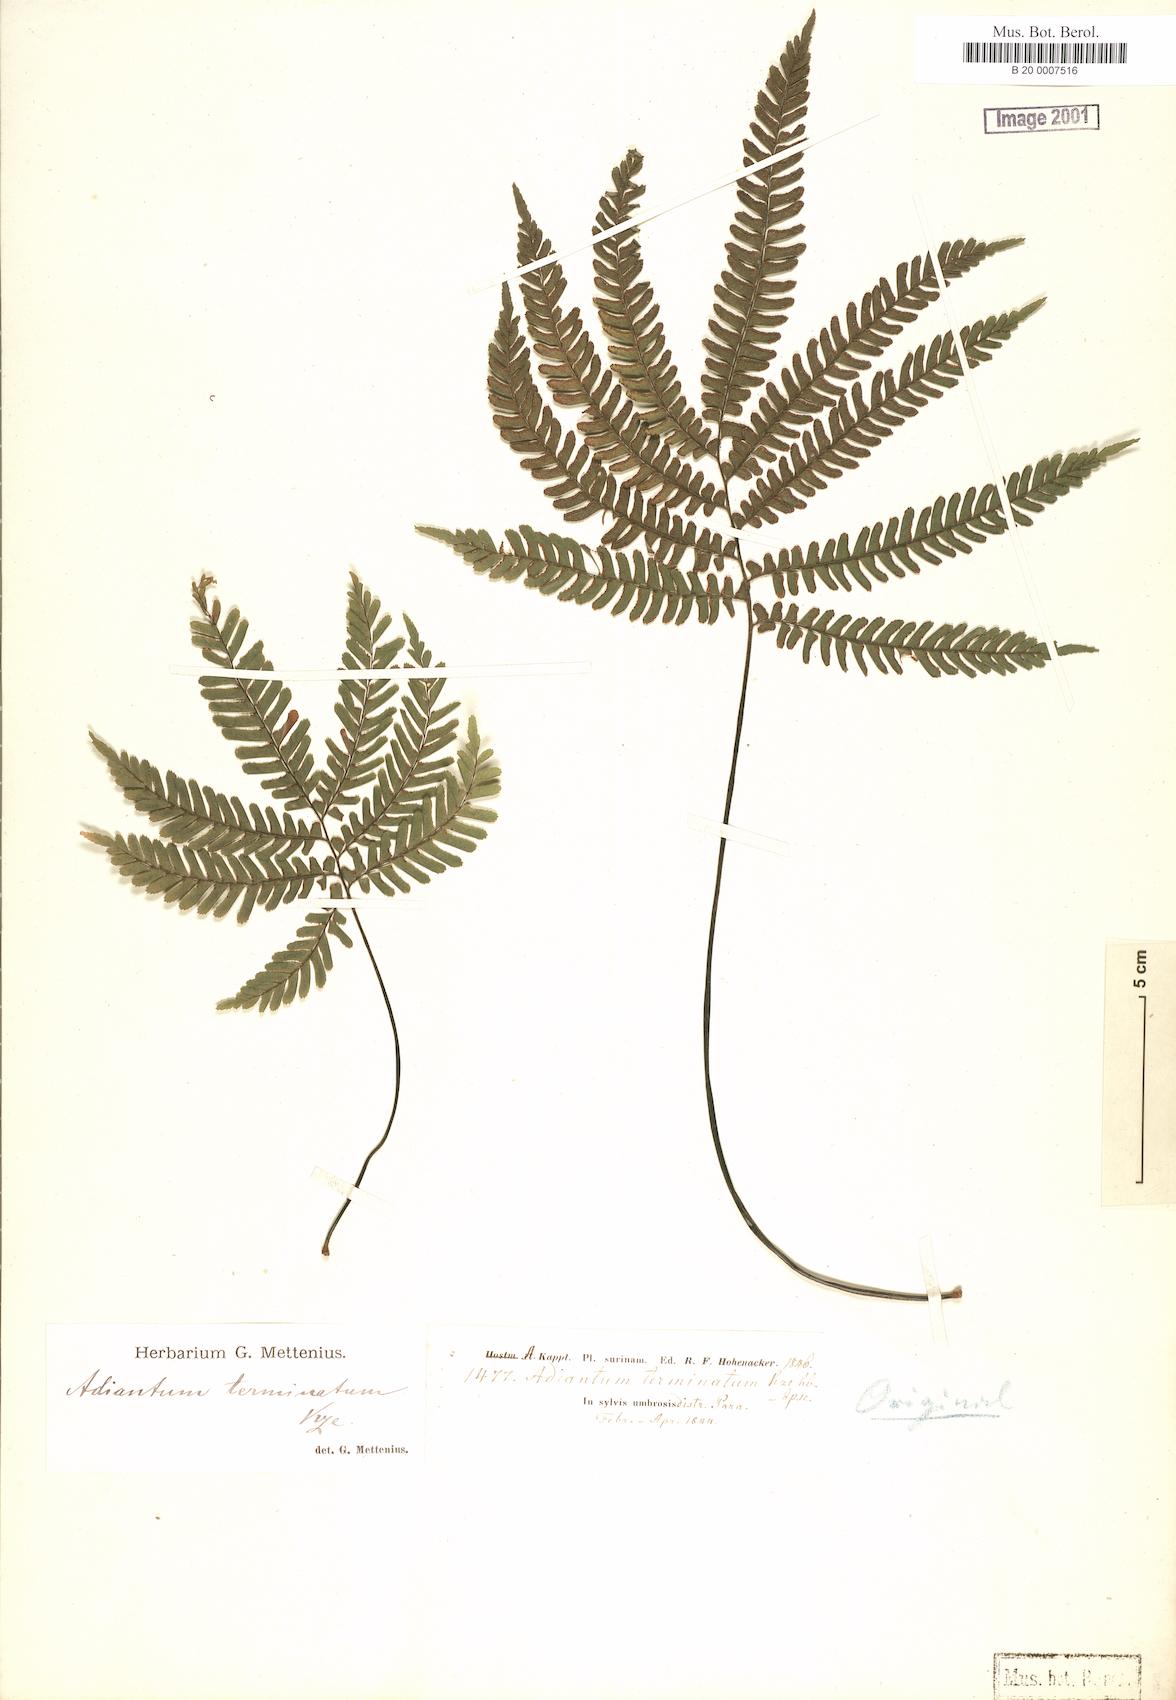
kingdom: Plantae
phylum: Tracheophyta
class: Polypodiopsida
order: Polypodiales
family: Pteridaceae
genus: Adiantum
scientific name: Adiantum terminatum
